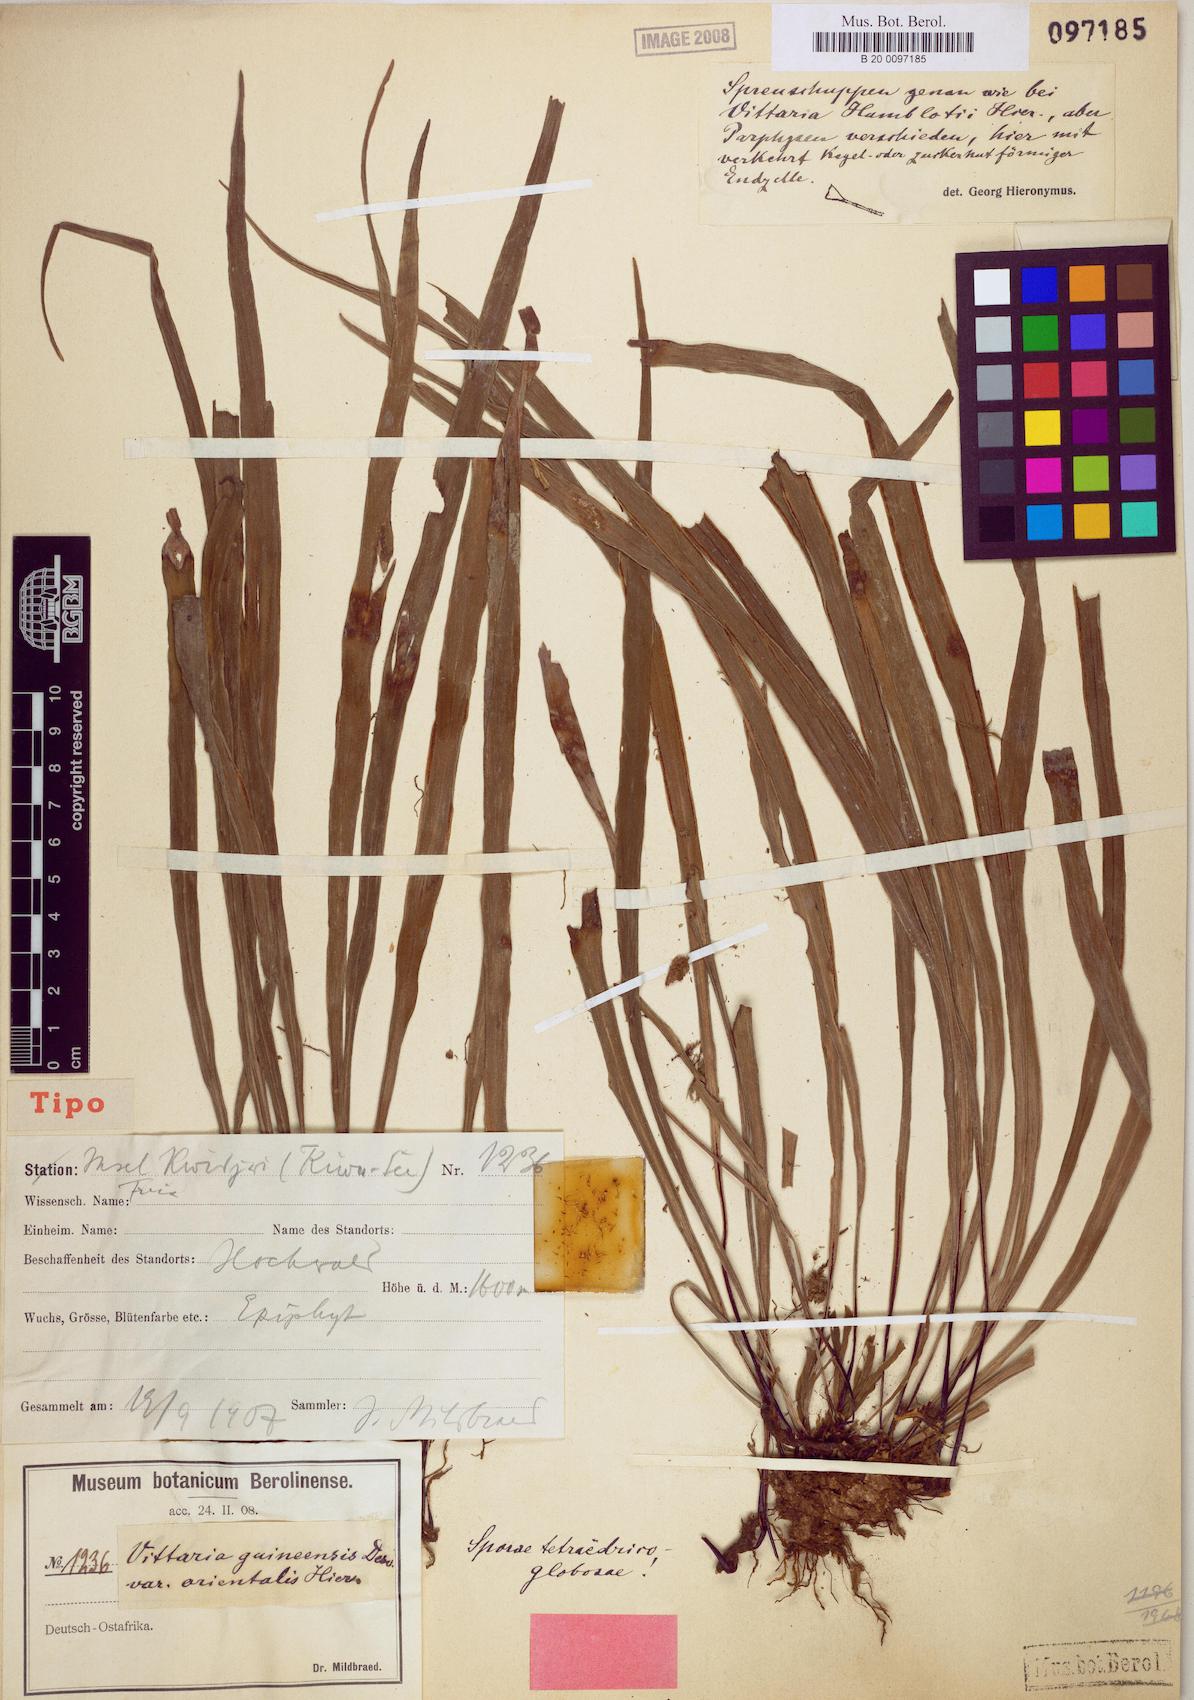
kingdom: Plantae
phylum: Tracheophyta
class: Polypodiopsida
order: Polypodiales
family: Pteridaceae
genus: Haplopteris
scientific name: Haplopteris guineensis
